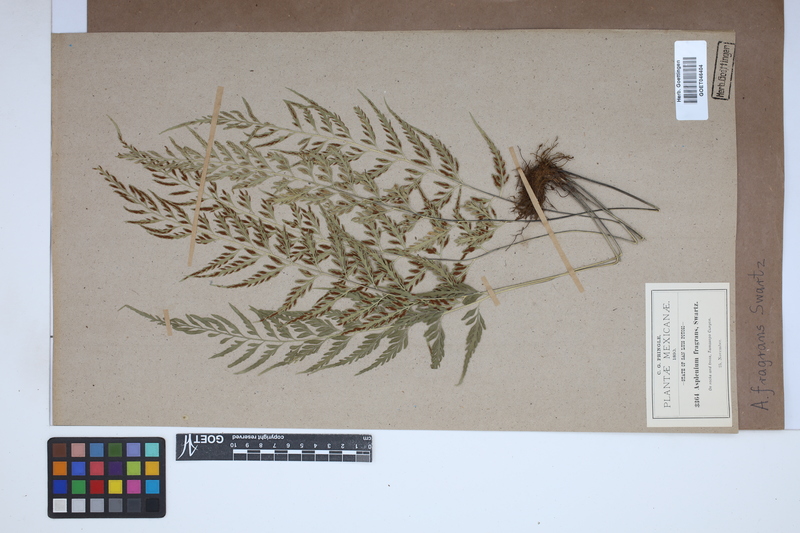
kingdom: Plantae
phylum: Tracheophyta
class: Polypodiopsida
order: Polypodiales
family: Aspleniaceae
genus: Asplenium
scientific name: Asplenium fragrans
